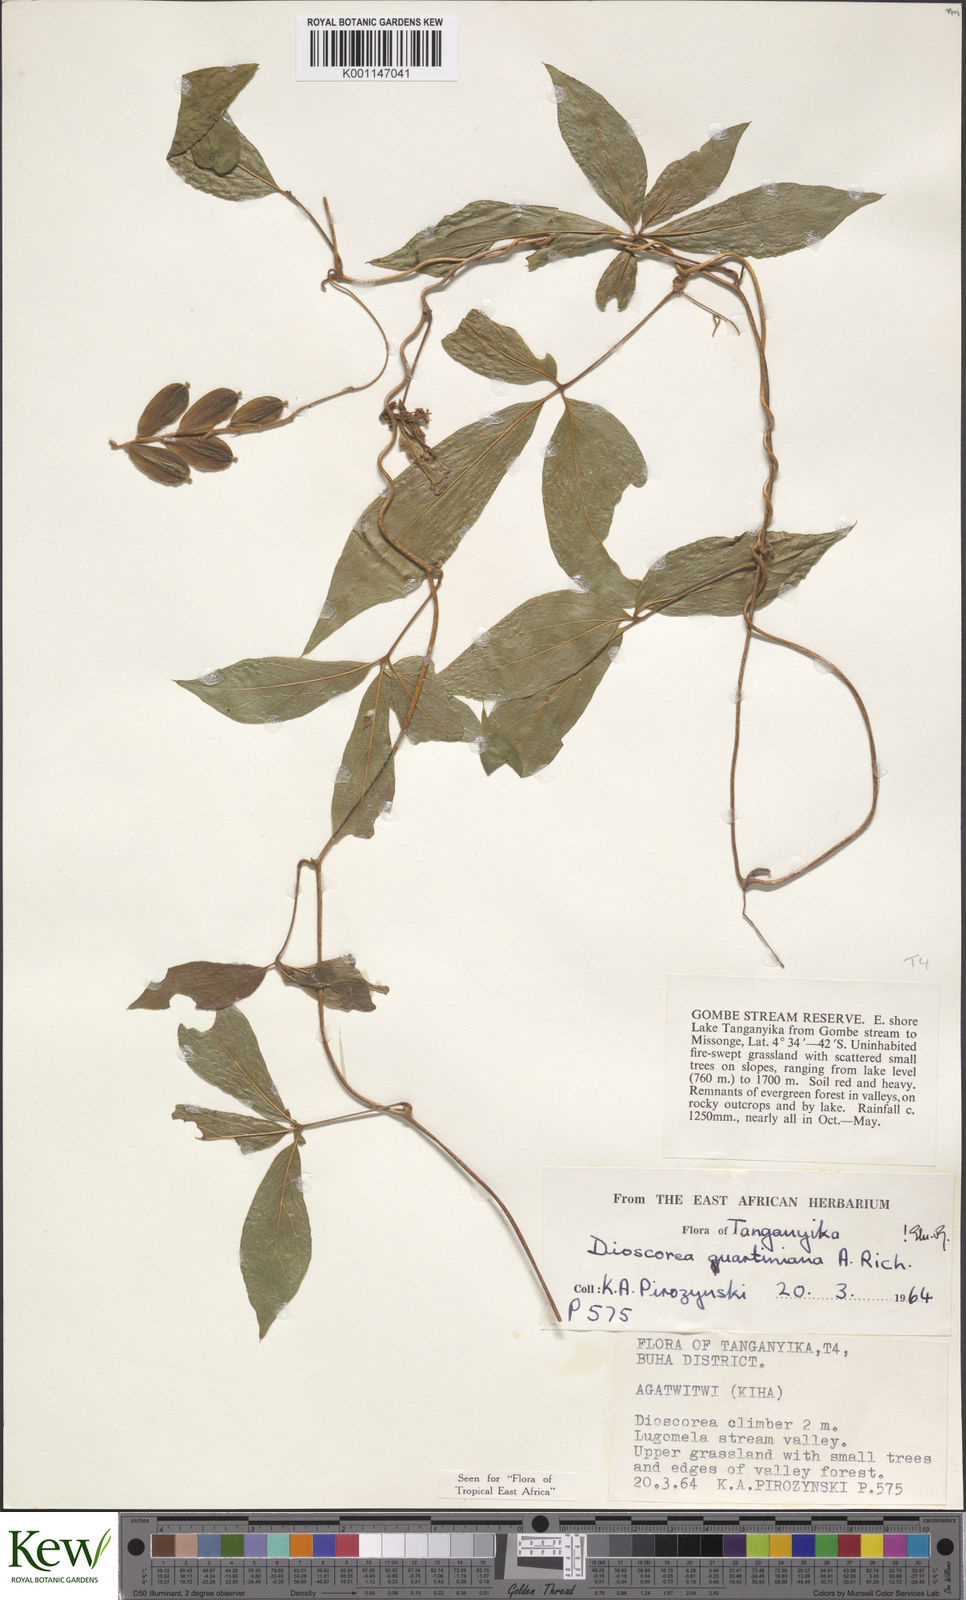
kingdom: Plantae
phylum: Tracheophyta
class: Liliopsida
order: Dioscoreales
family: Dioscoreaceae
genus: Dioscorea
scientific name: Dioscorea quartiniana
